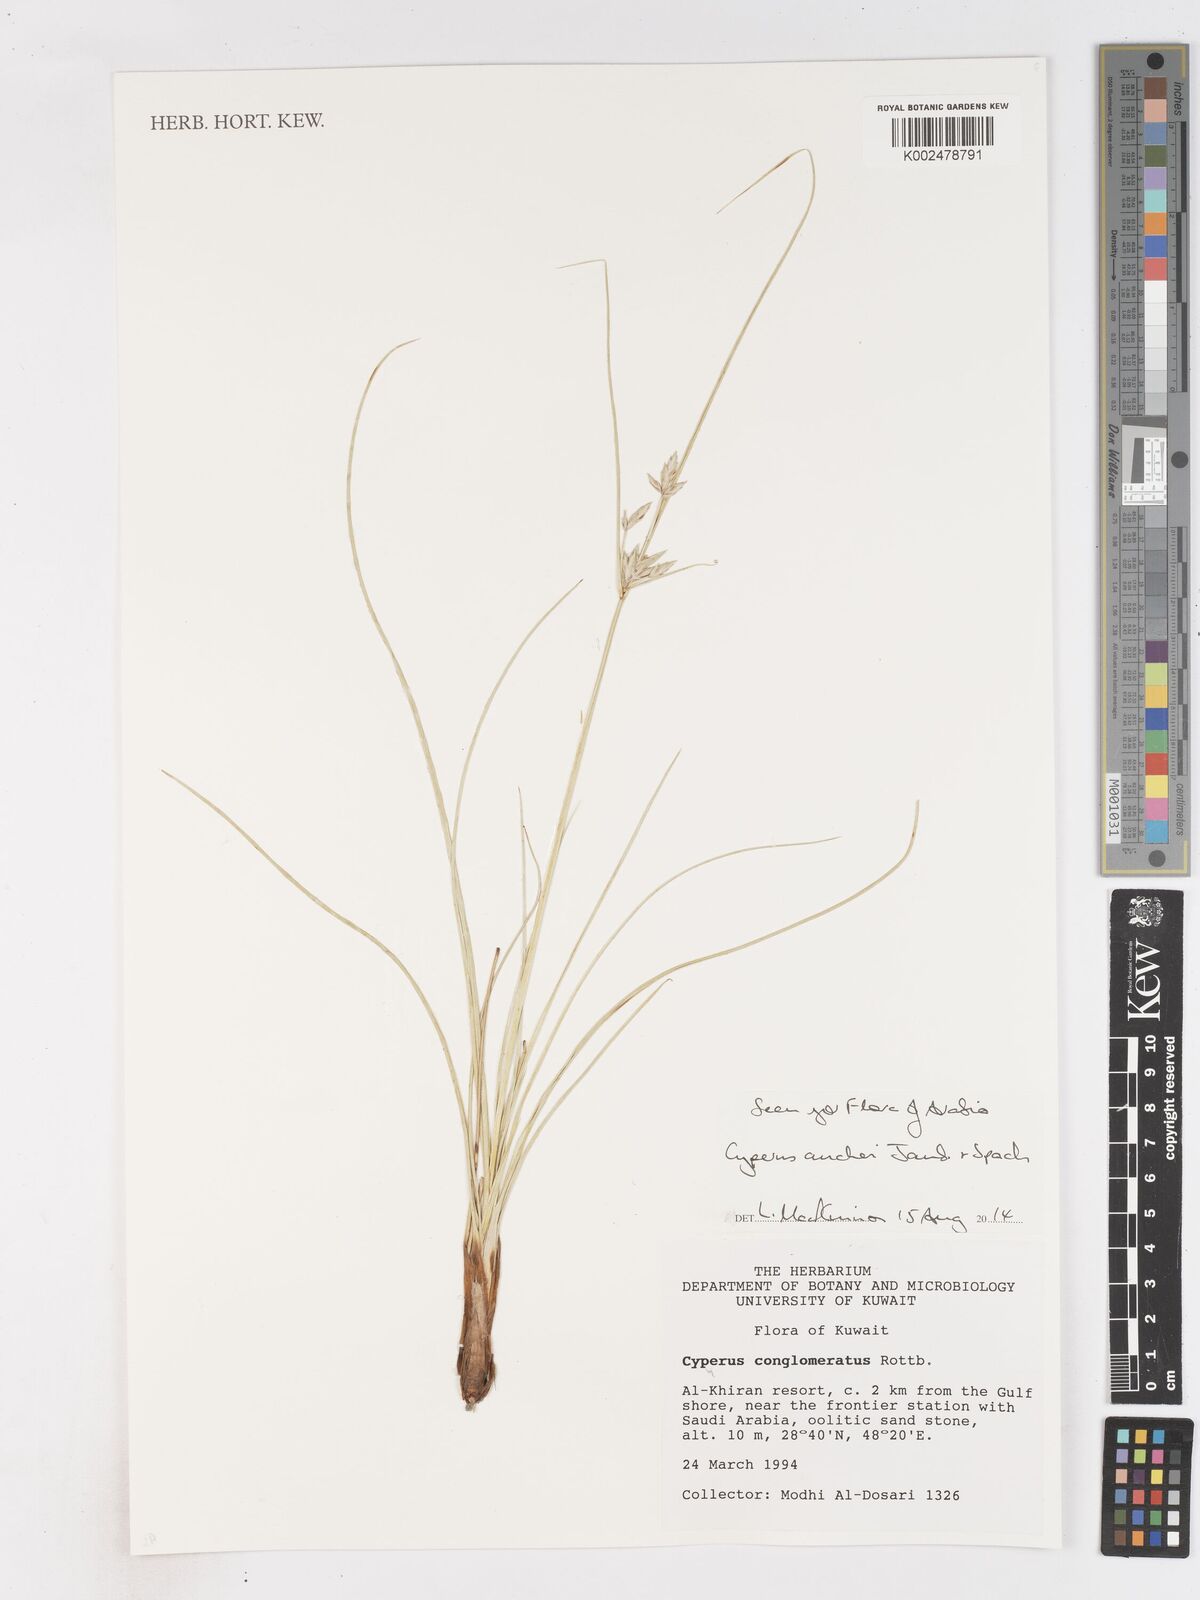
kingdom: Plantae
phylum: Tracheophyta
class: Liliopsida
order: Poales
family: Cyperaceae
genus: Cyperus
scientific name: Cyperus aucheri
